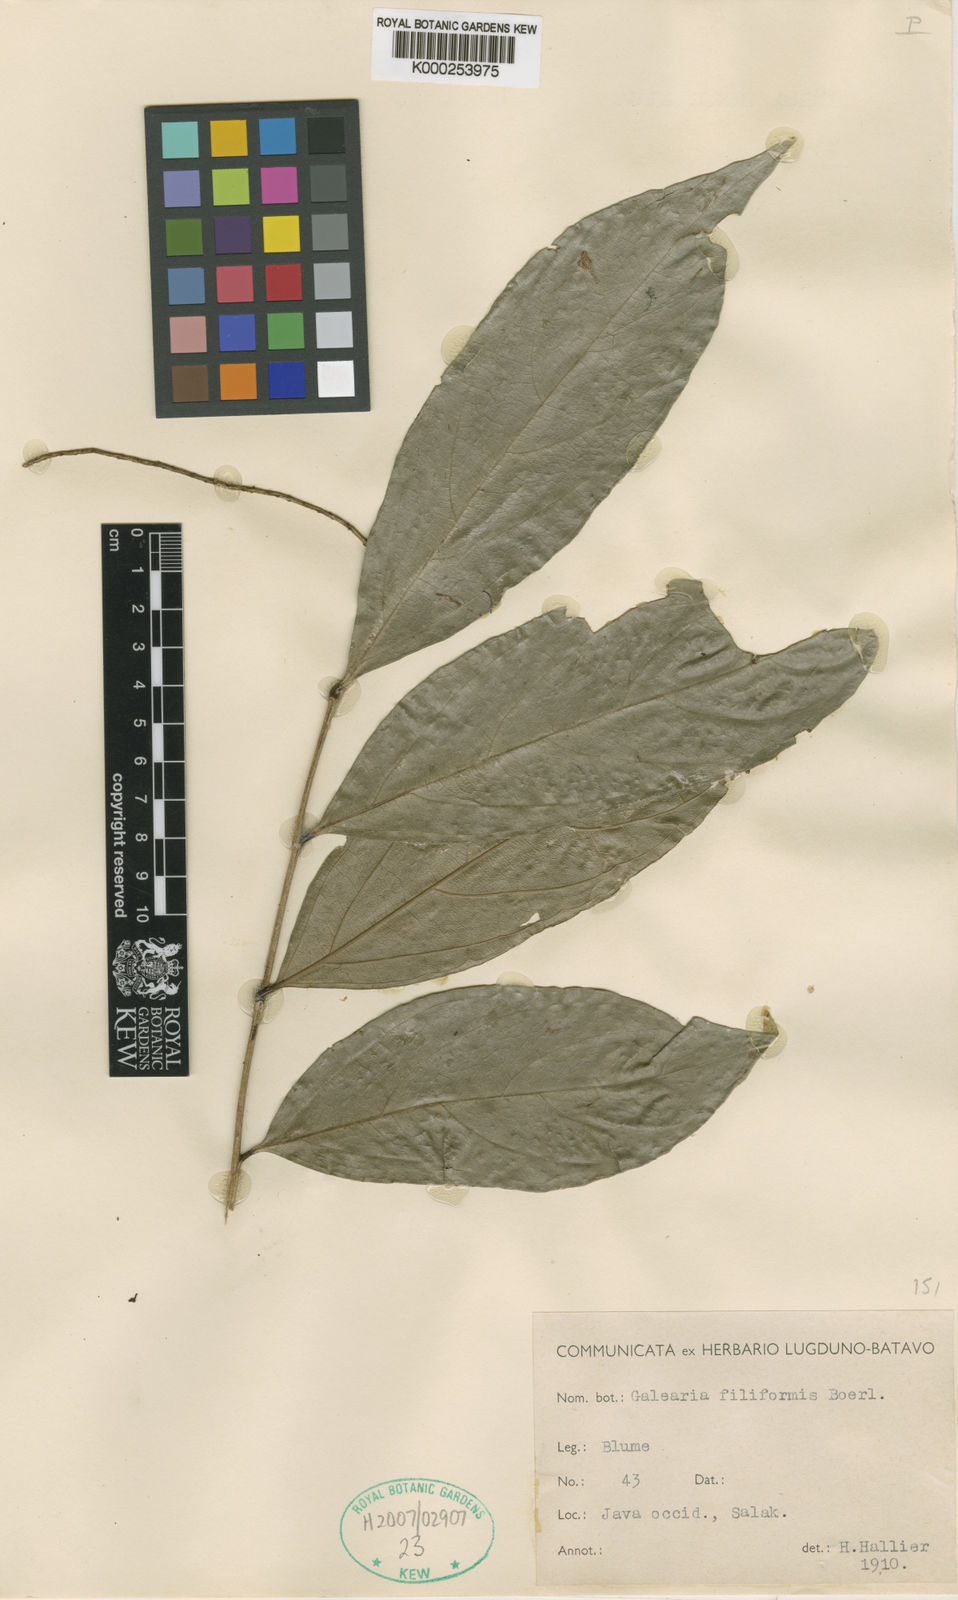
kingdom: Plantae
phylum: Tracheophyta
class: Magnoliopsida
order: Malpighiales
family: Pandaceae
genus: Galearia
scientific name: Galearia filiformis
